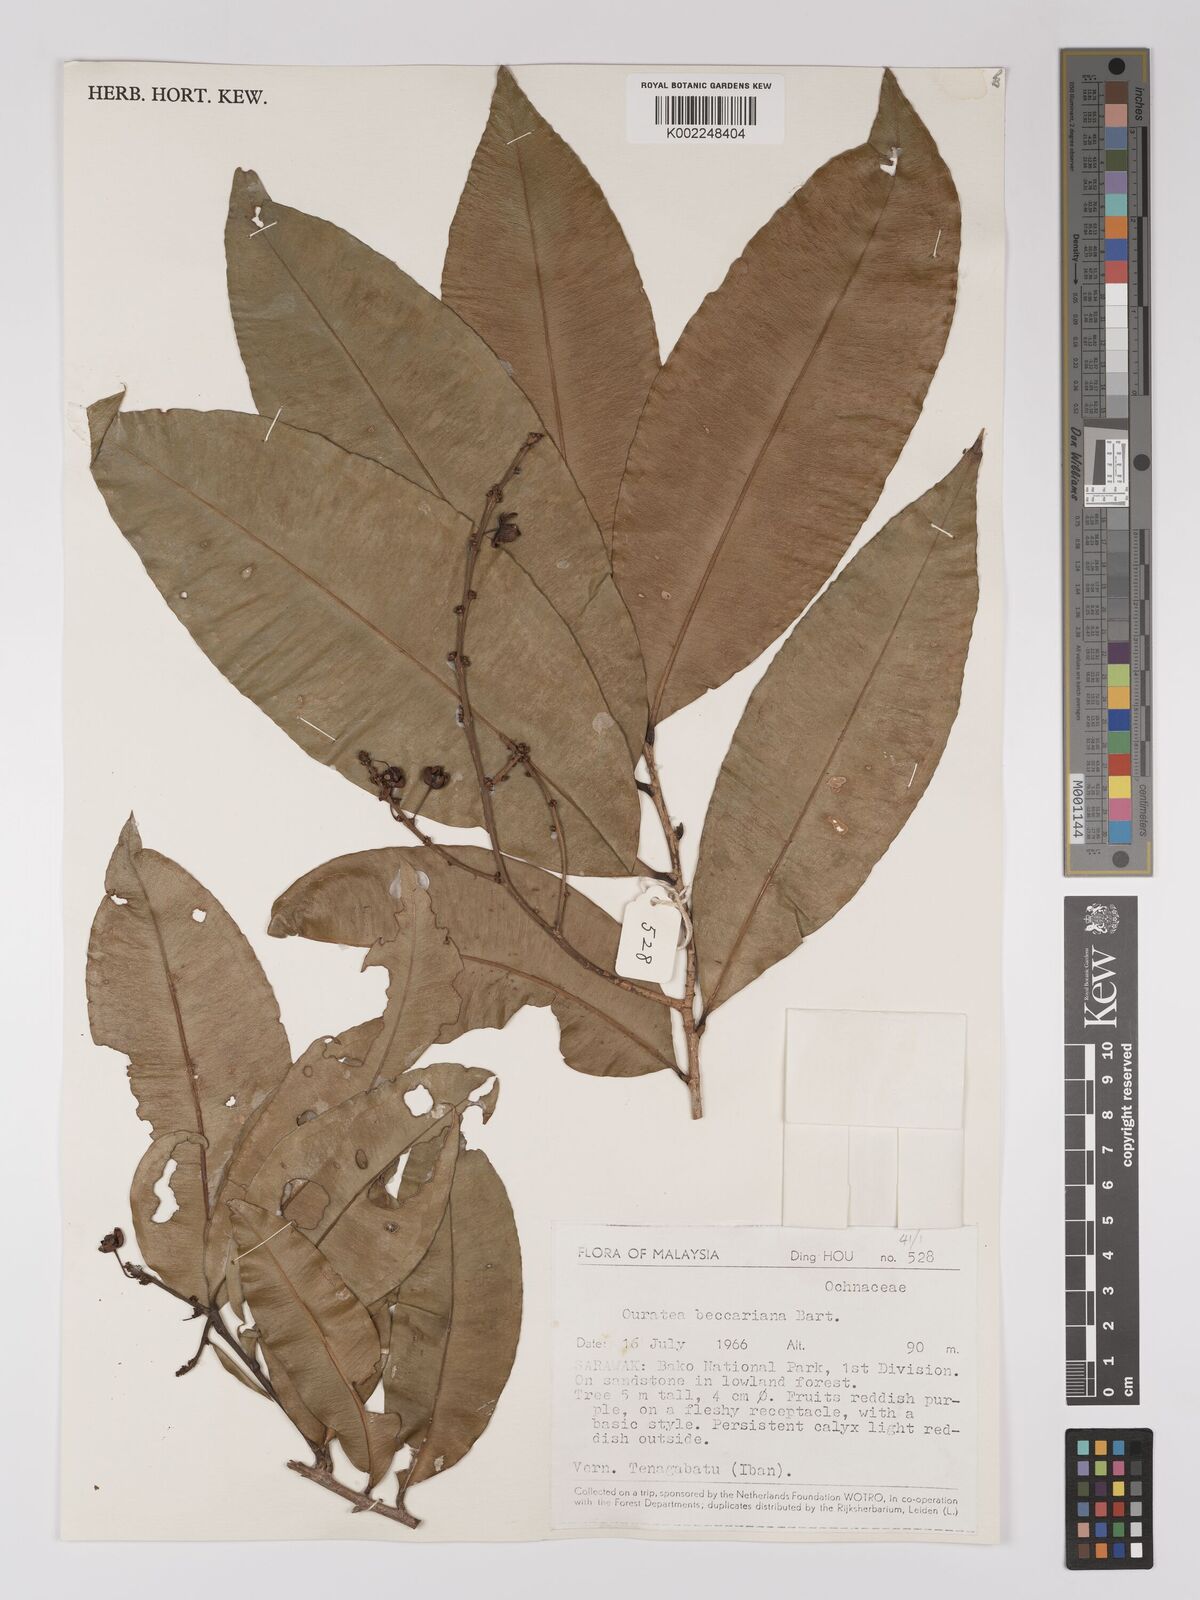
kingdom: Plantae
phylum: Tracheophyta
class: Magnoliopsida
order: Malpighiales
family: Ochnaceae
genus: Gomphia
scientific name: Gomphia serrata
